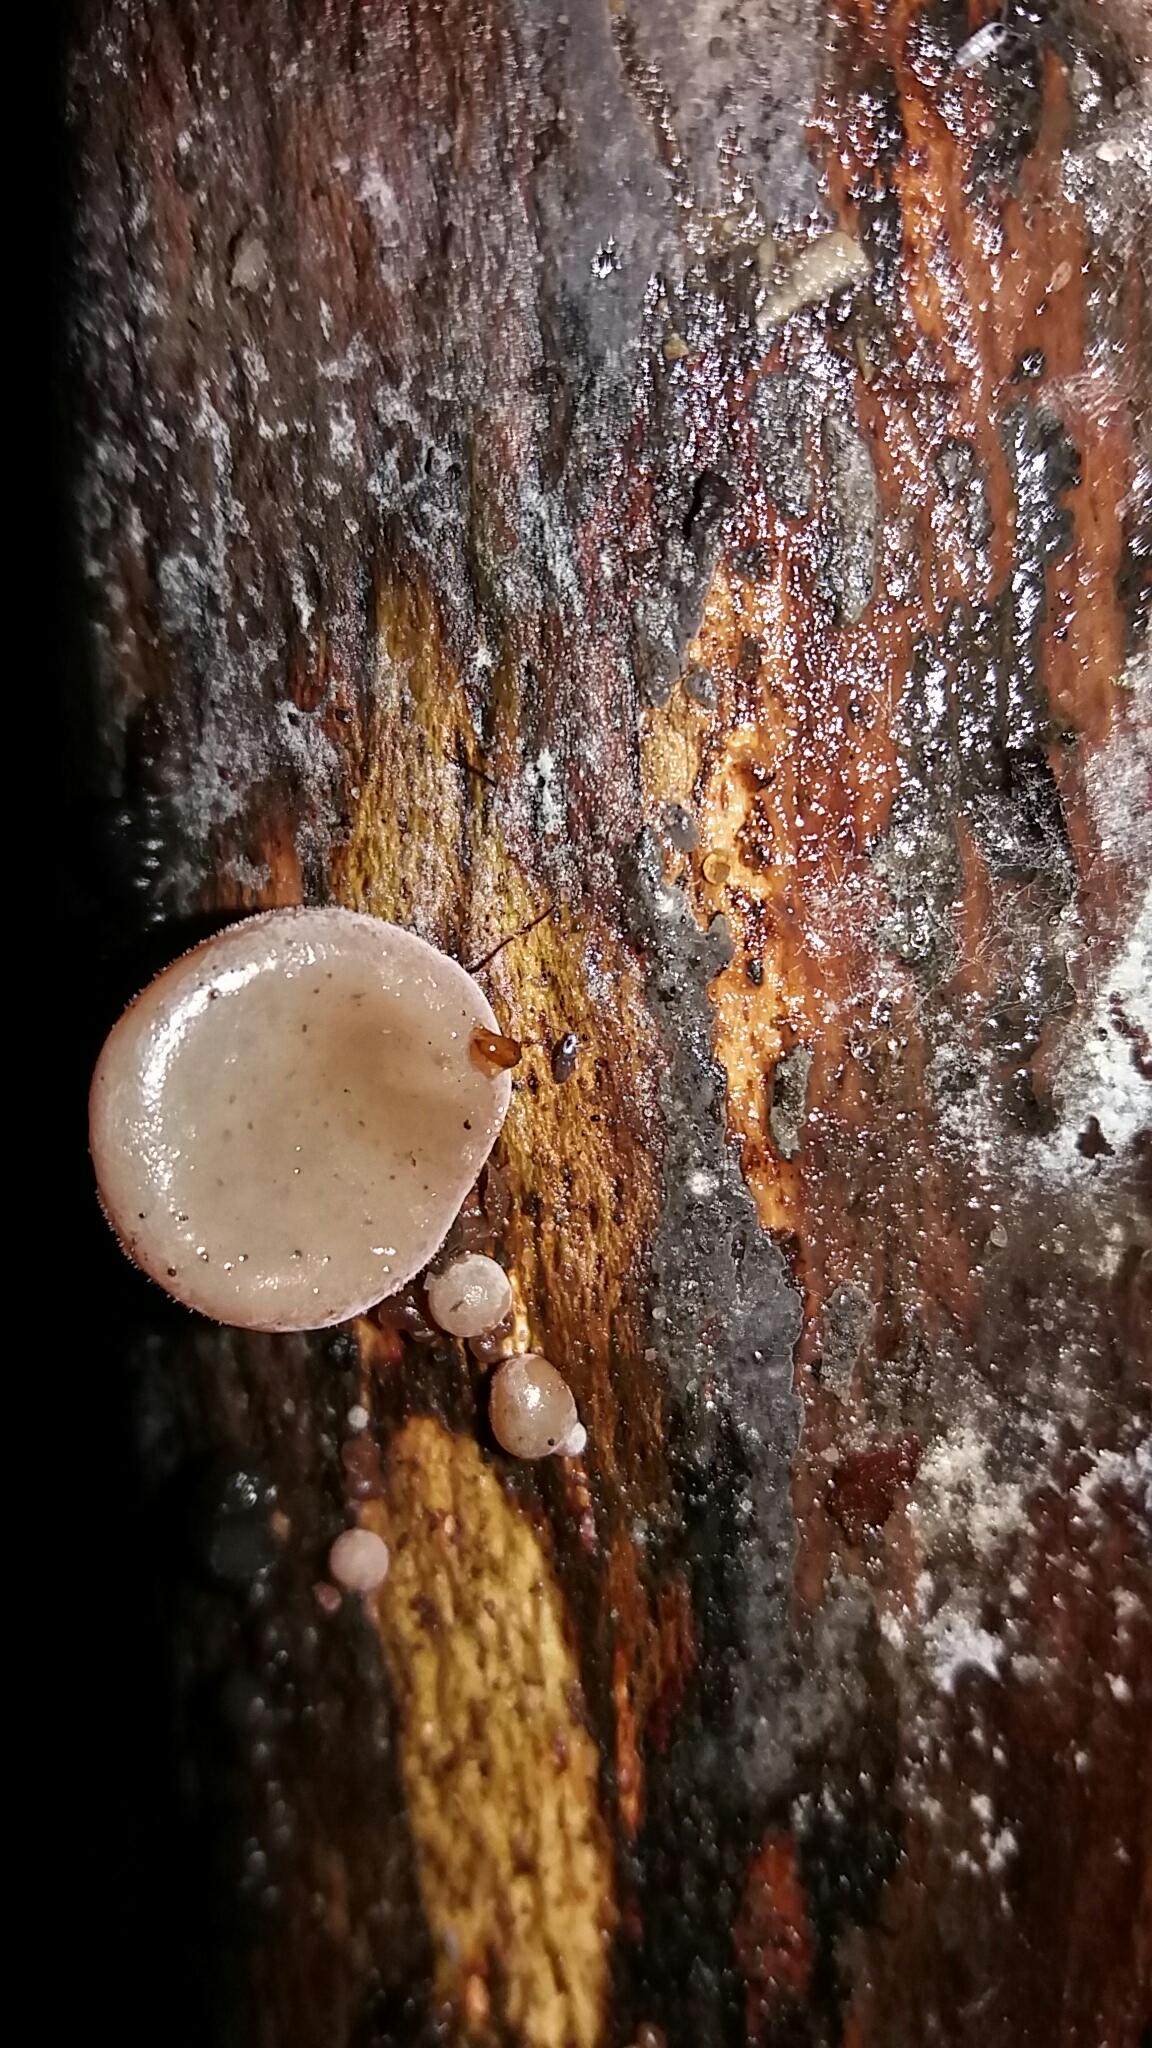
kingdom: Fungi
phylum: Basidiomycota
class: Agaricomycetes
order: Auriculariales
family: Auriculariaceae
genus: Auricularia
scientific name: Auricularia auricula-judae
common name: almindelig judasøre
